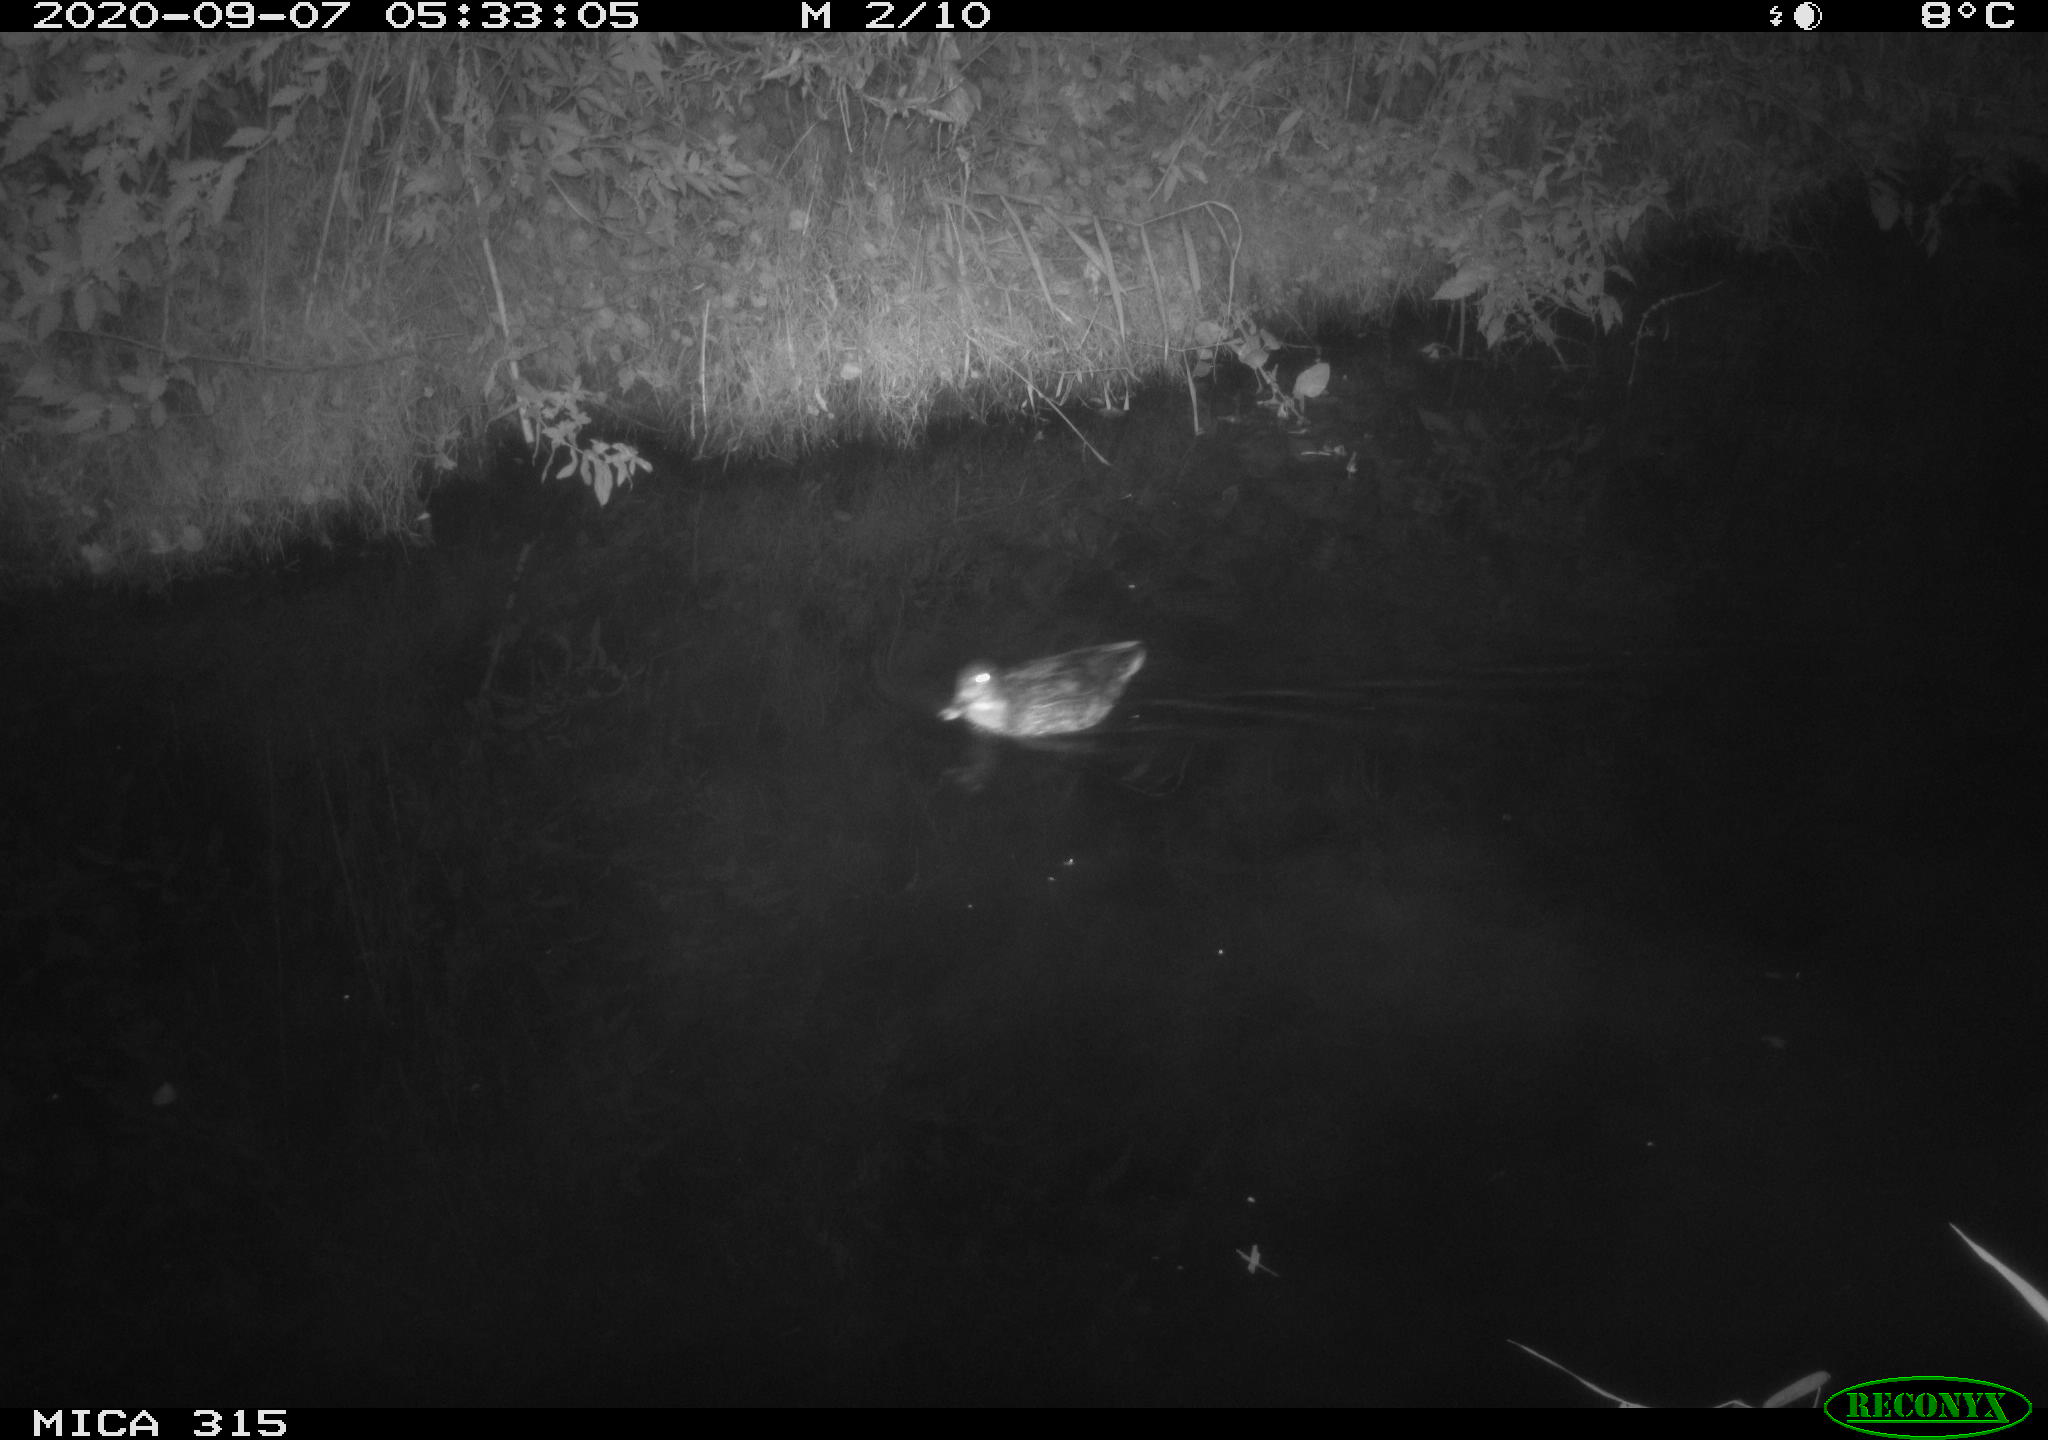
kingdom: Animalia
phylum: Chordata
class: Aves
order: Anseriformes
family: Anatidae
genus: Anas
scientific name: Anas platyrhynchos
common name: Mallard
